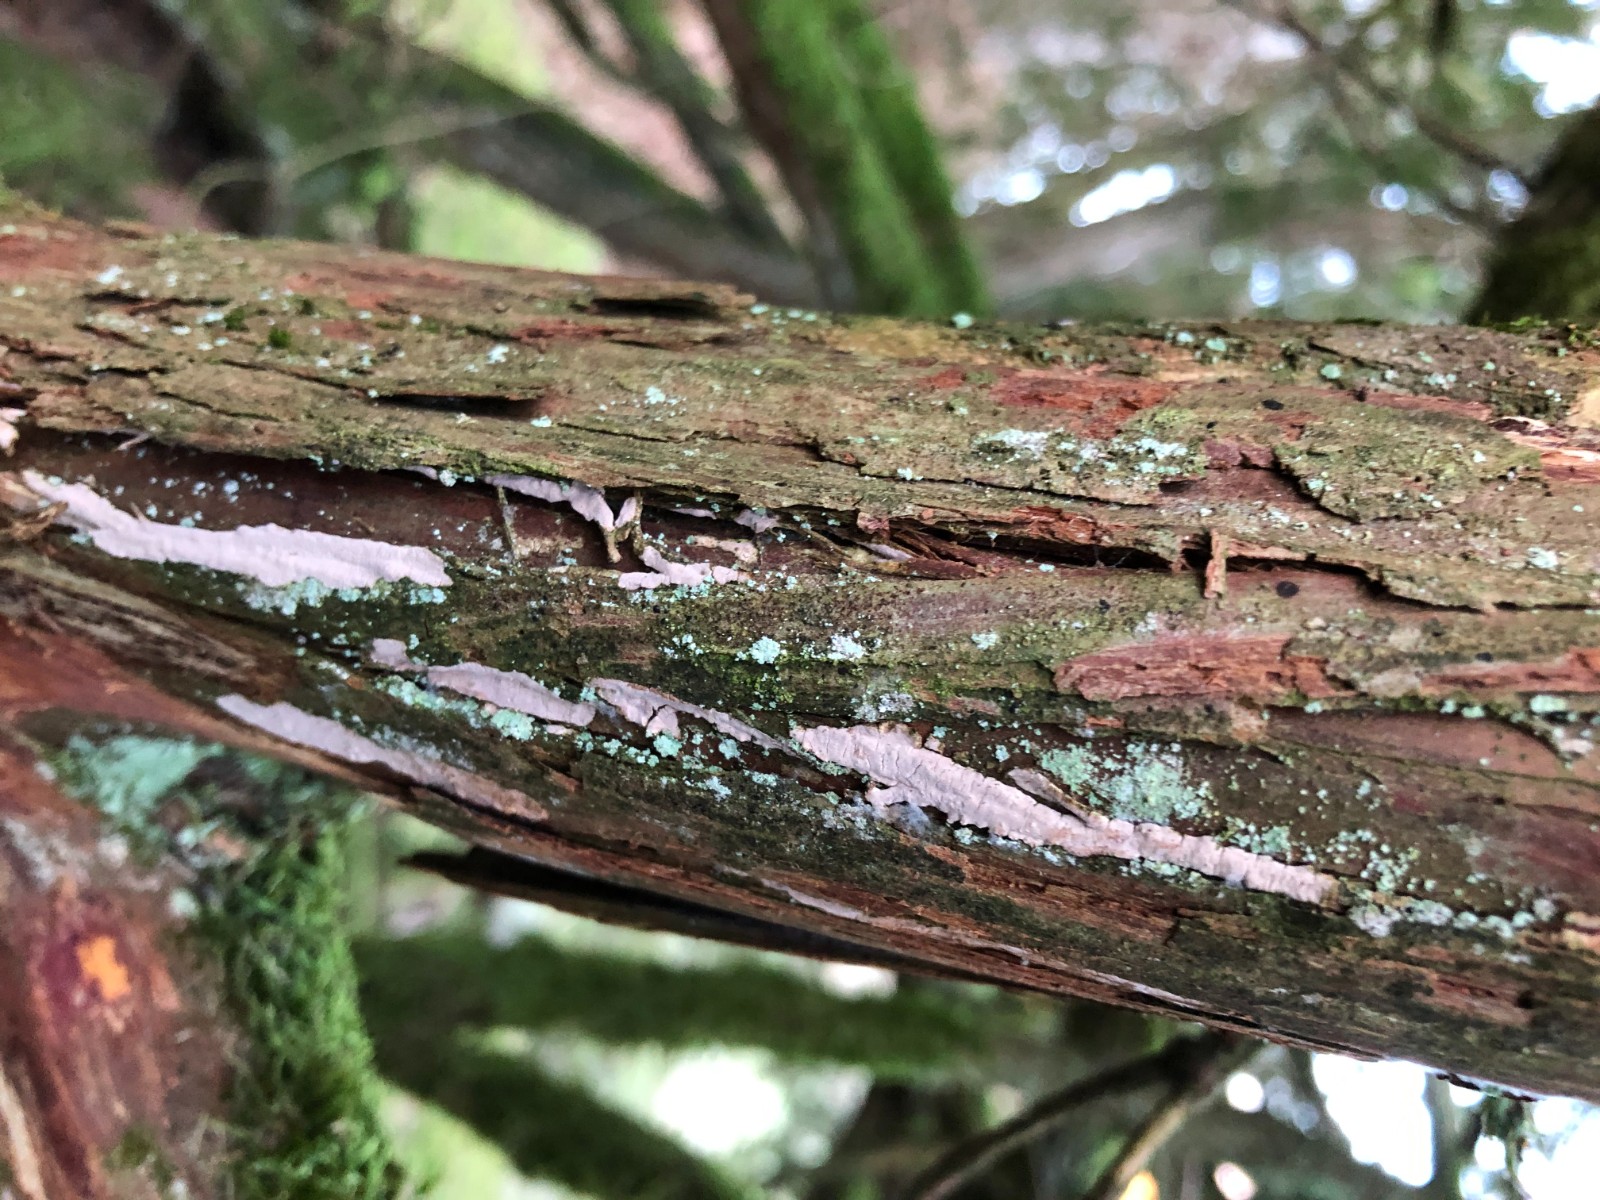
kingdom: Fungi
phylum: Basidiomycota
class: Agaricomycetes
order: Russulales
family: Echinodontiaceae
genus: Amylostereum
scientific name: Amylostereum laevigatum
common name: ene-lædersvamp
